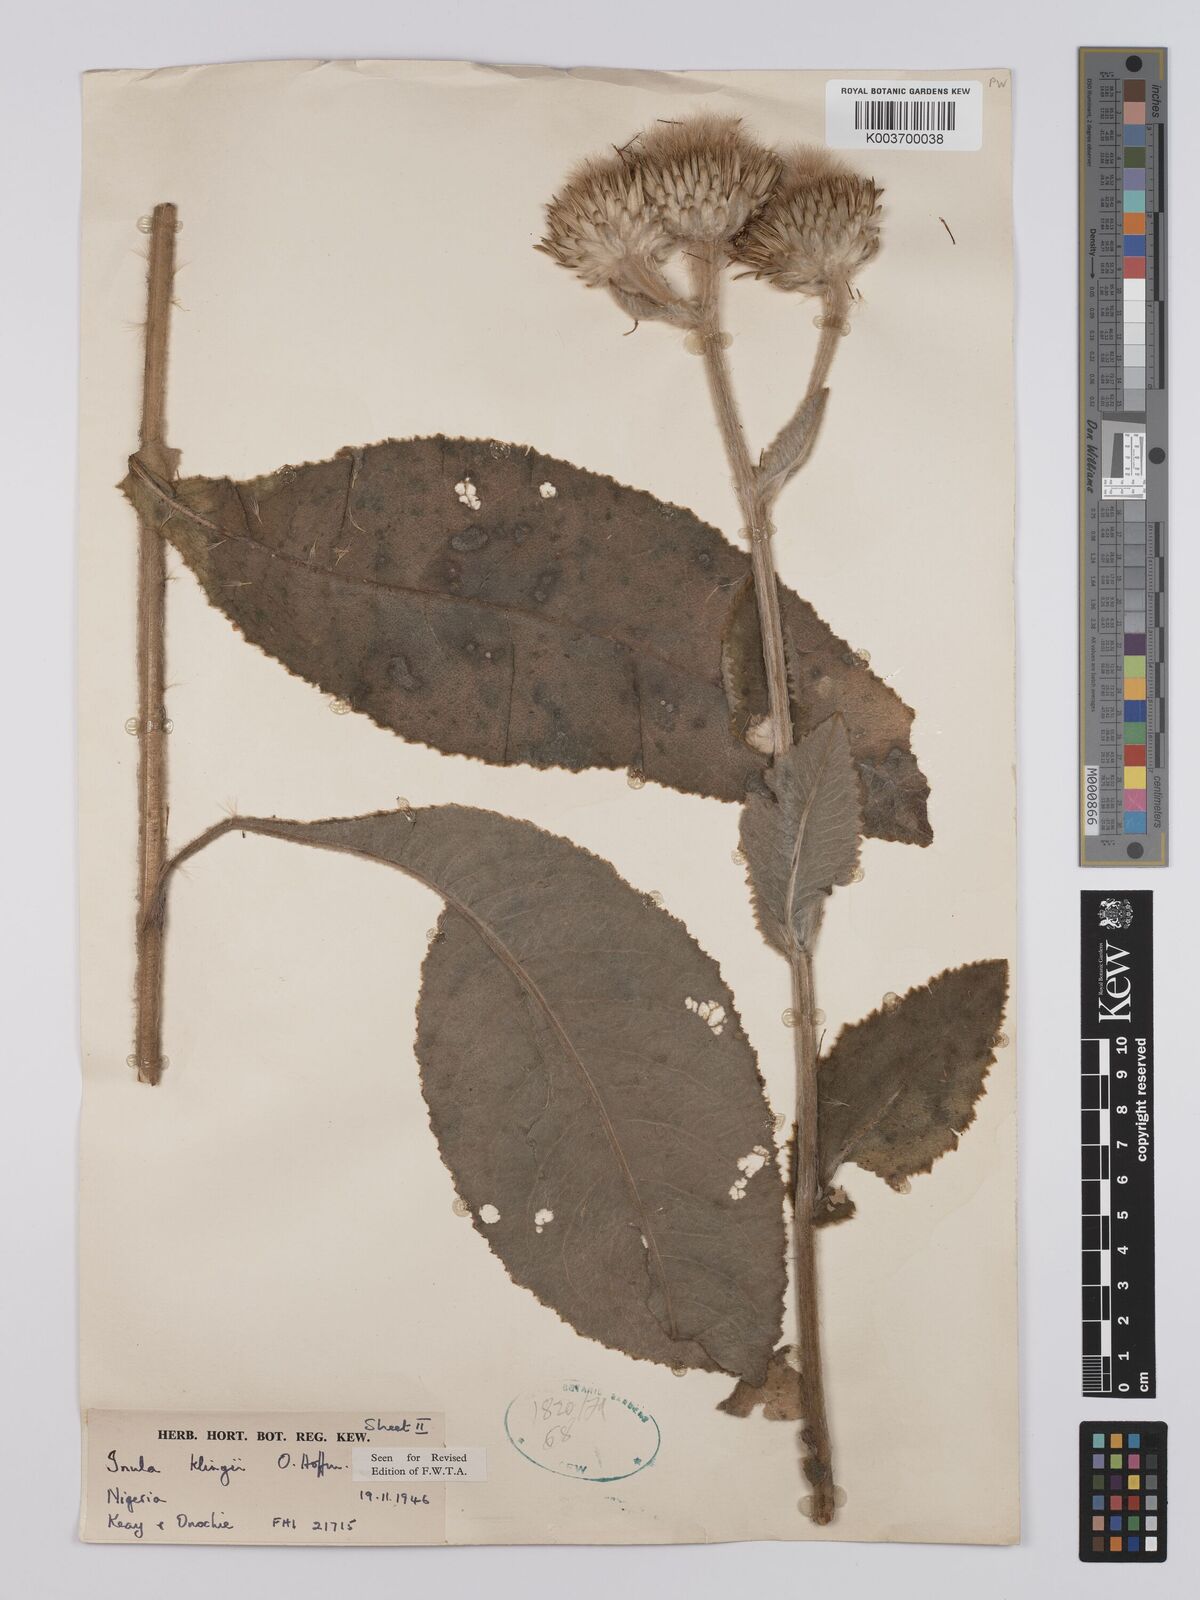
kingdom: Plantae
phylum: Tracheophyta
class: Magnoliopsida
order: Asterales
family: Asteraceae
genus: Inula
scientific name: Inula klingii
